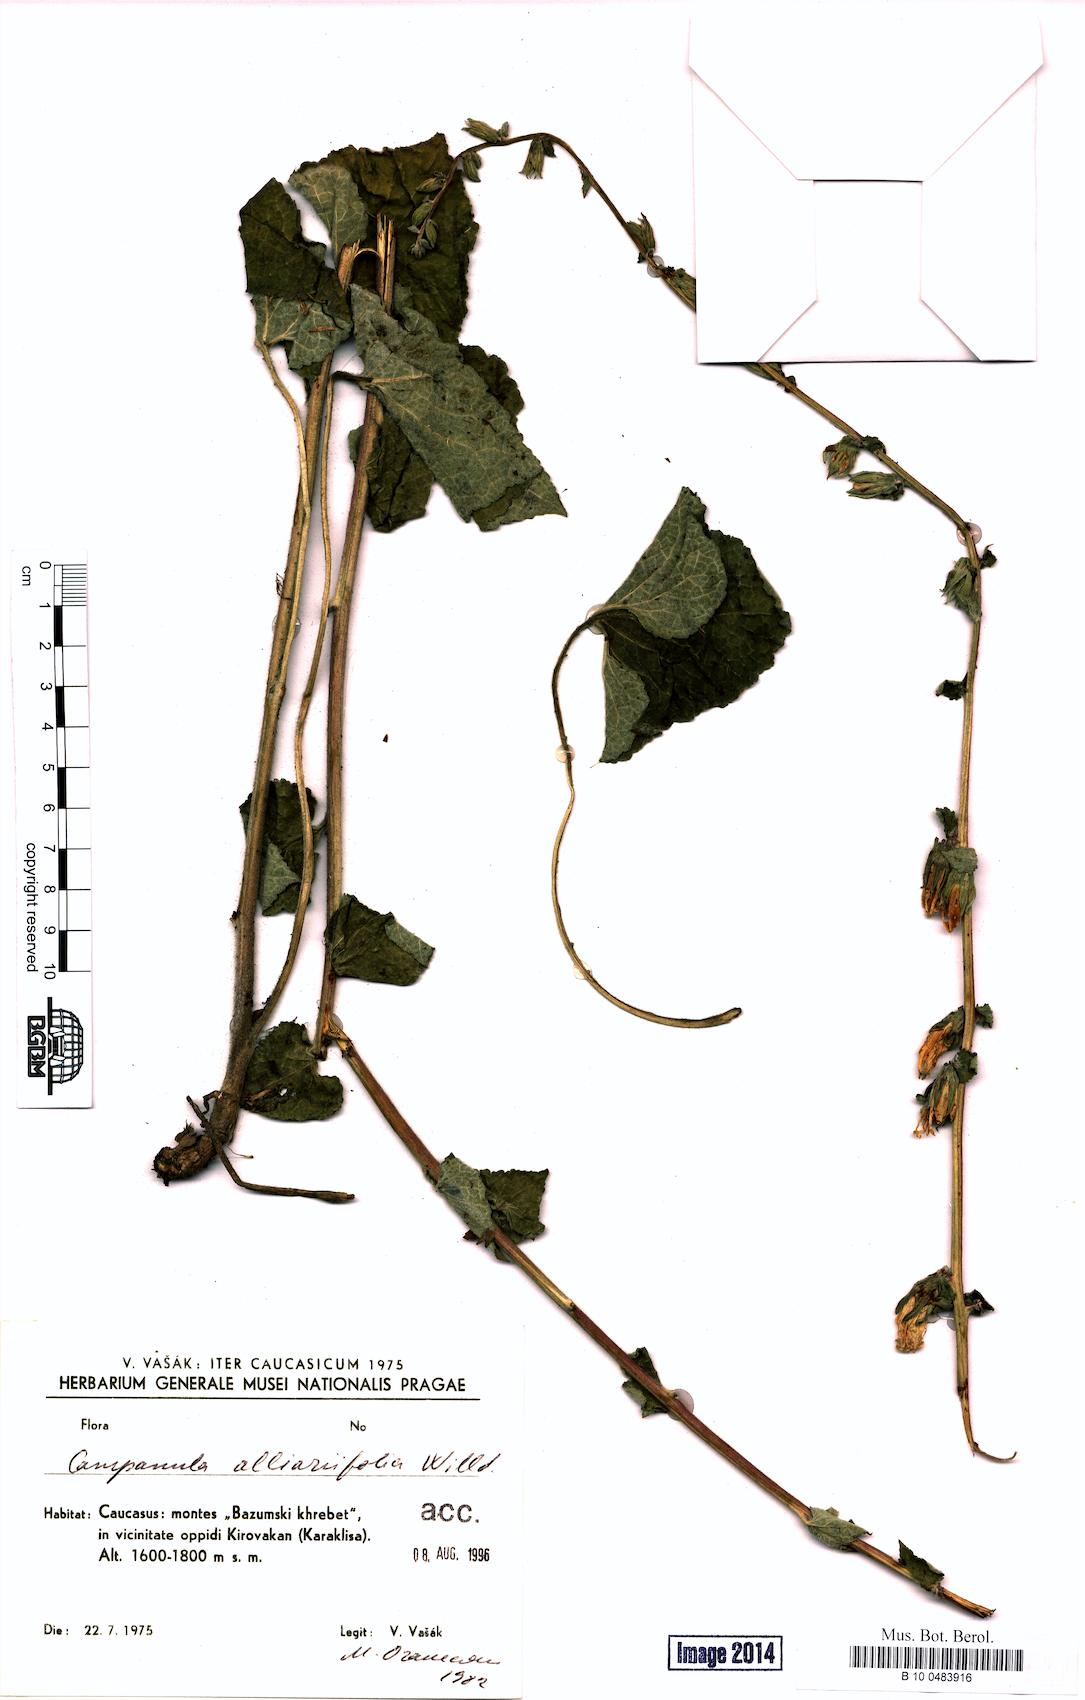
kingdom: Plantae
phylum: Tracheophyta
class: Magnoliopsida
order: Asterales
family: Campanulaceae
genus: Campanula
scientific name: Campanula alliariifolia
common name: Cornish bellflower
